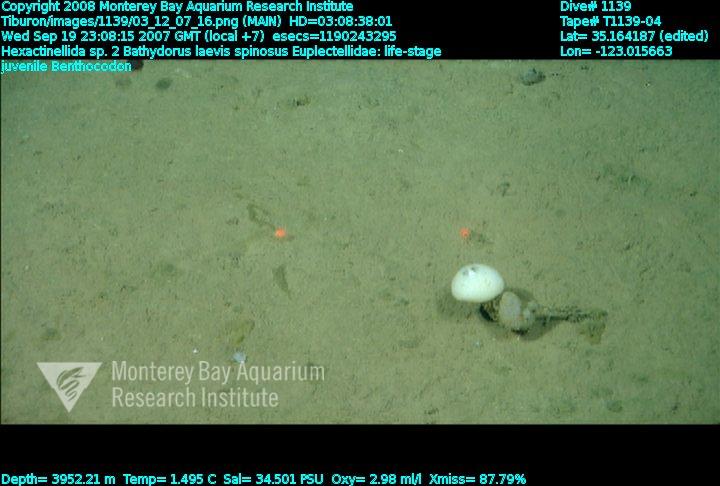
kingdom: Animalia
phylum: Porifera
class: Hexactinellida
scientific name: Hexactinellida
